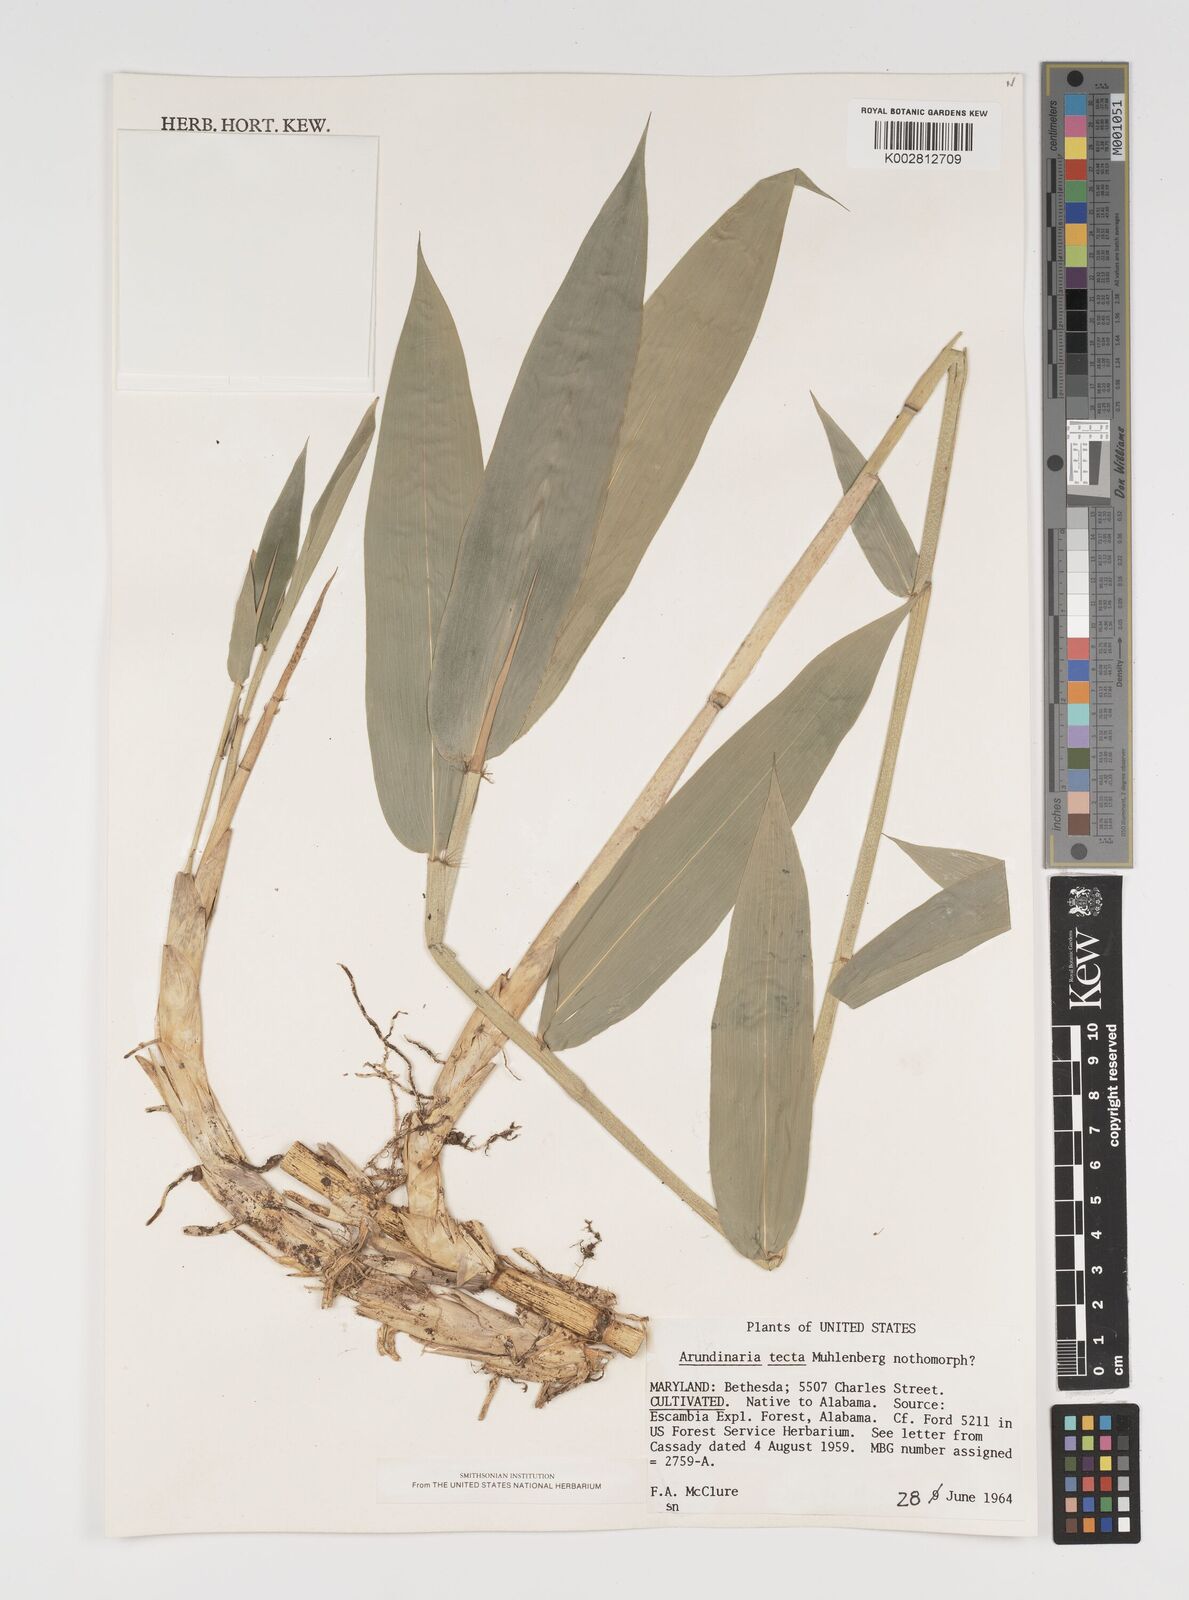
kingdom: Plantae
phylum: Tracheophyta
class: Liliopsida
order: Poales
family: Poaceae
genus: Arundinaria
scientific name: Arundinaria tecta
